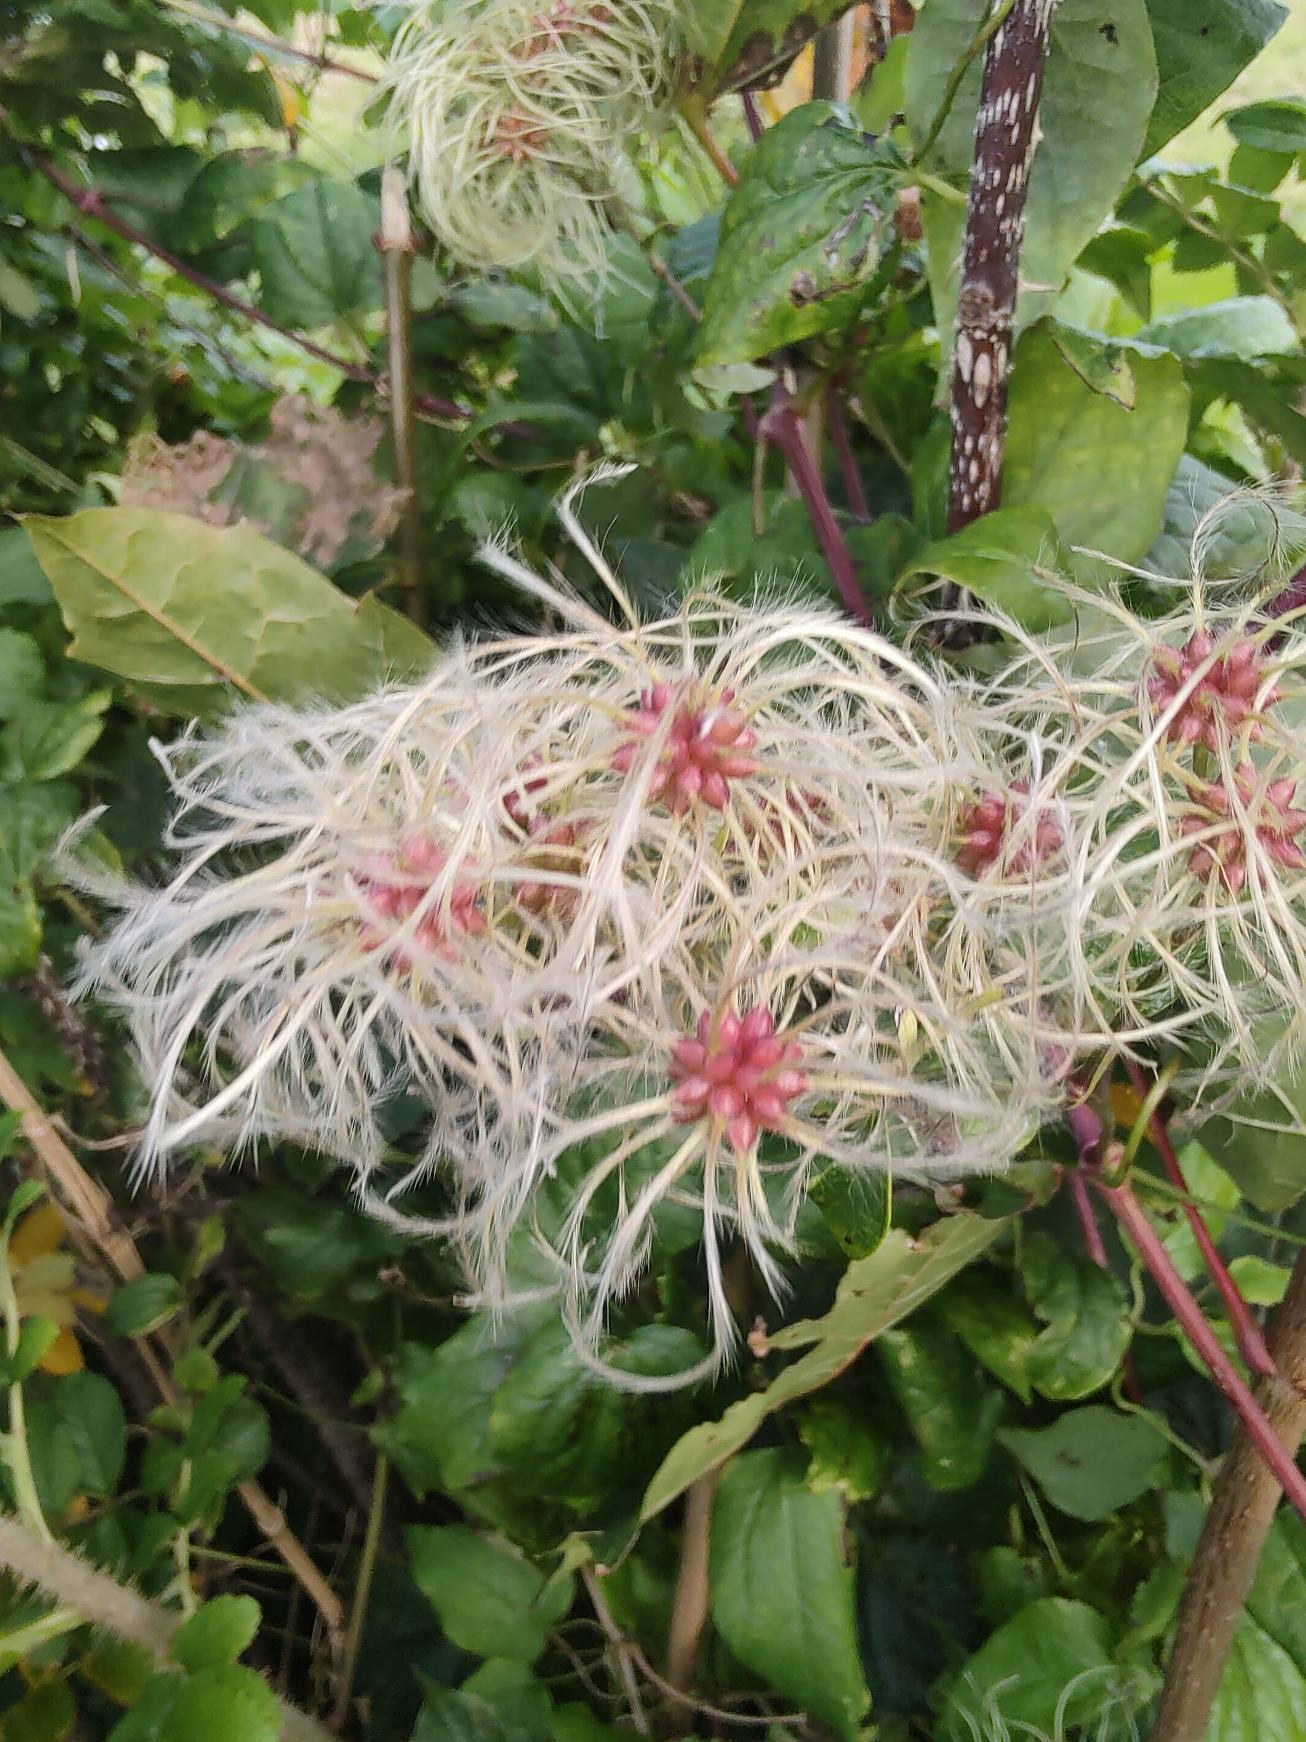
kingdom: Plantae
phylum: Tracheophyta
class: Magnoliopsida
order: Ranunculales
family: Ranunculaceae
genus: Clematis
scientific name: Clematis vitalba
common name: Skovranke
